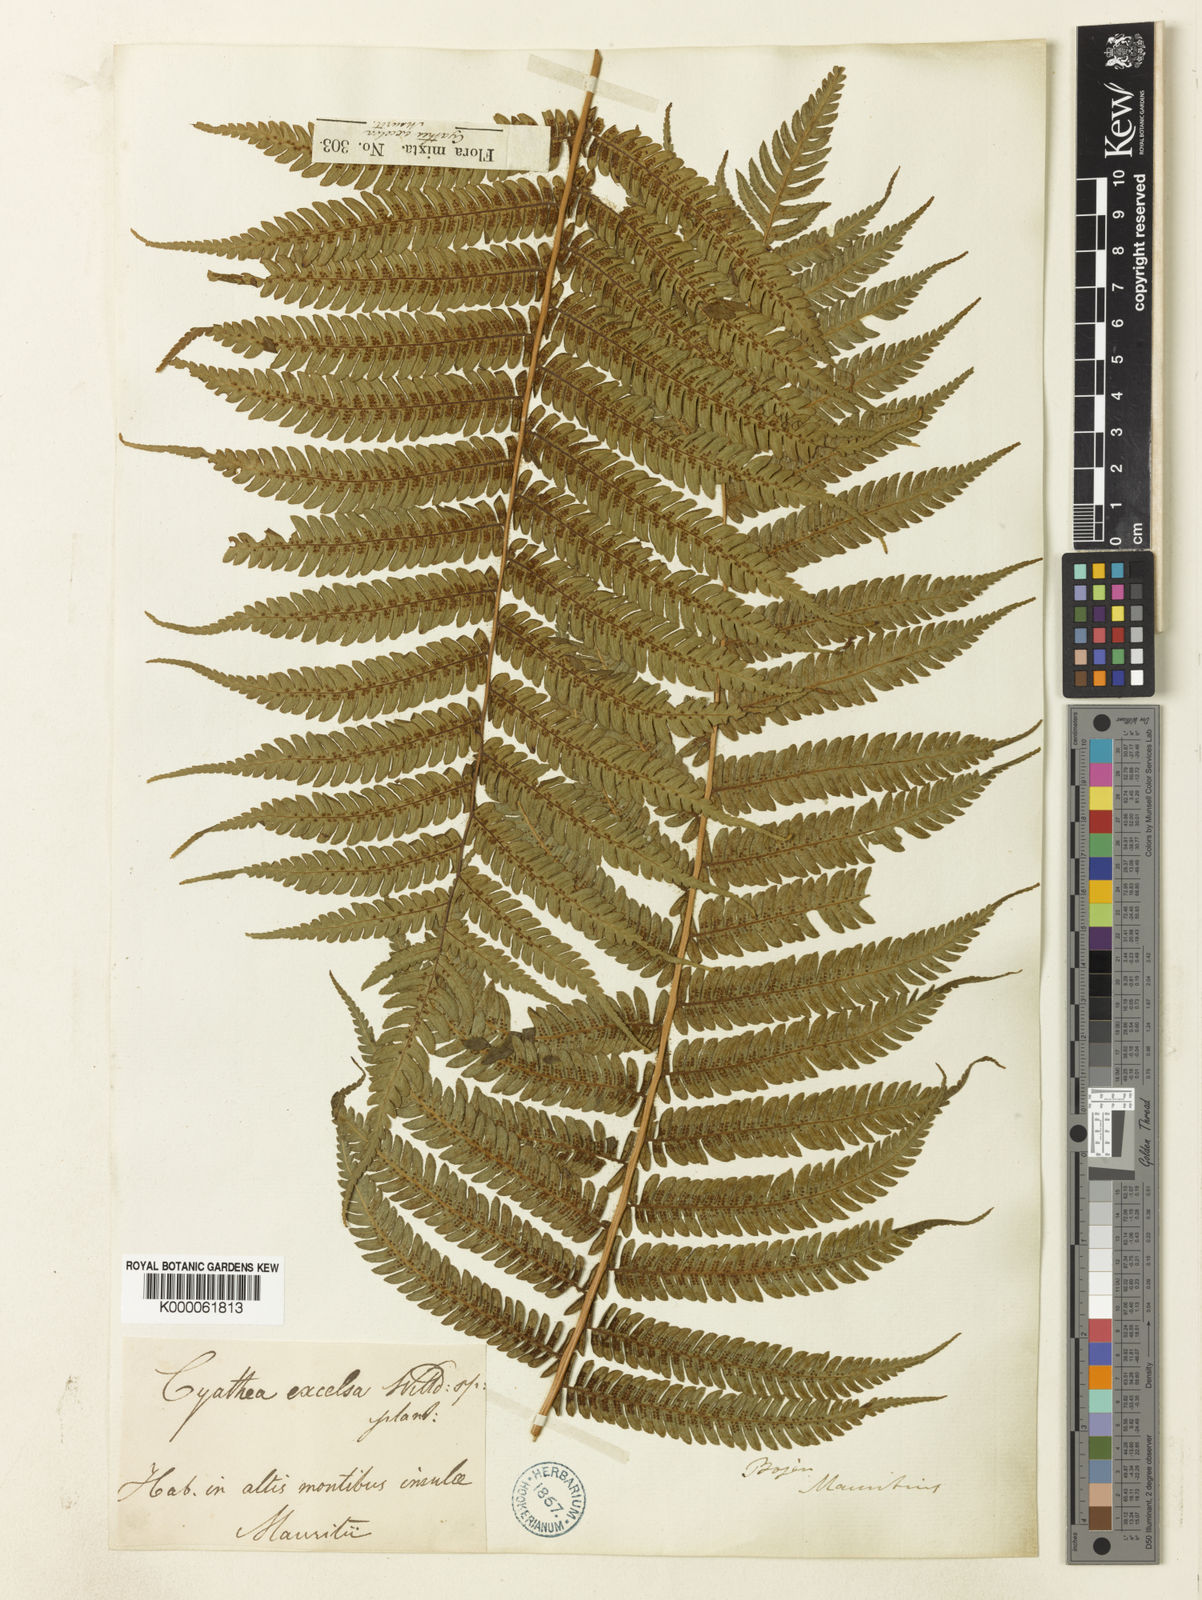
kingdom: Plantae
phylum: Tracheophyta
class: Polypodiopsida
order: Cyatheales
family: Cyatheaceae
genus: Cyathea
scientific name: Cyathea
